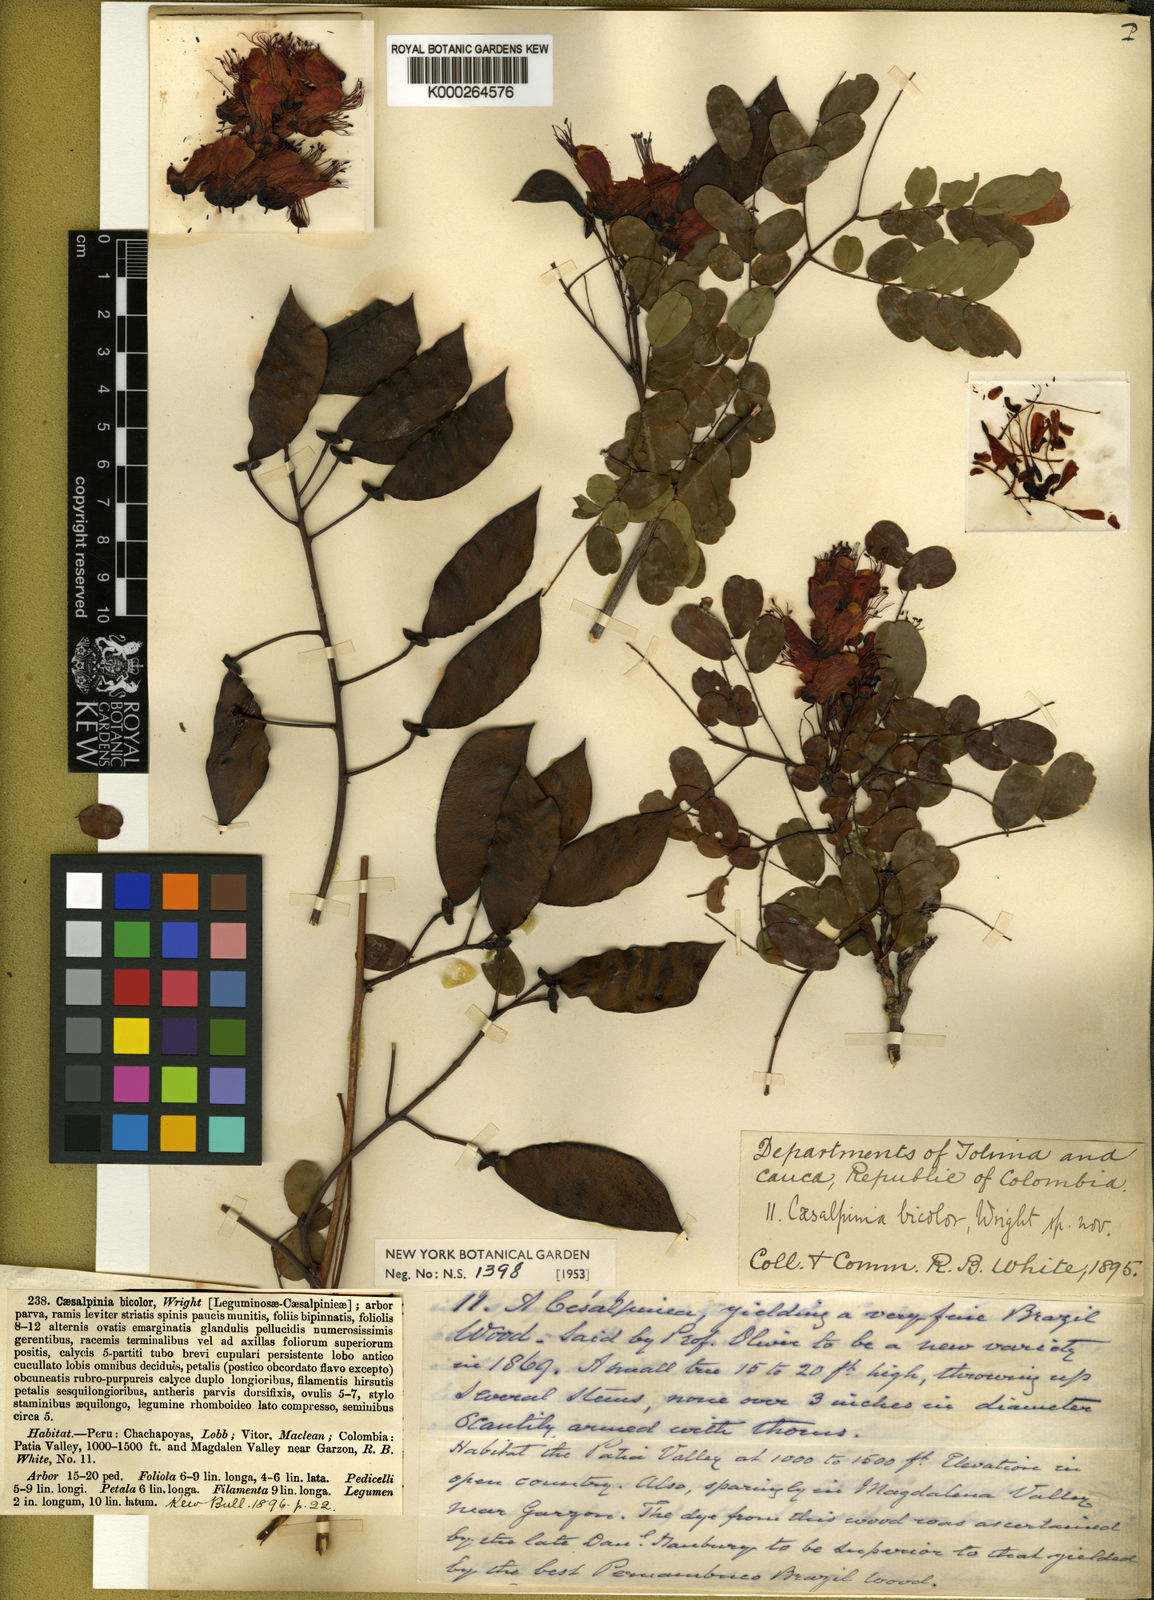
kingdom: Plantae
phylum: Tracheophyta
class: Magnoliopsida
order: Fabales
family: Fabaceae
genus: Caesalpinia
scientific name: Caesalpinia cassioides
